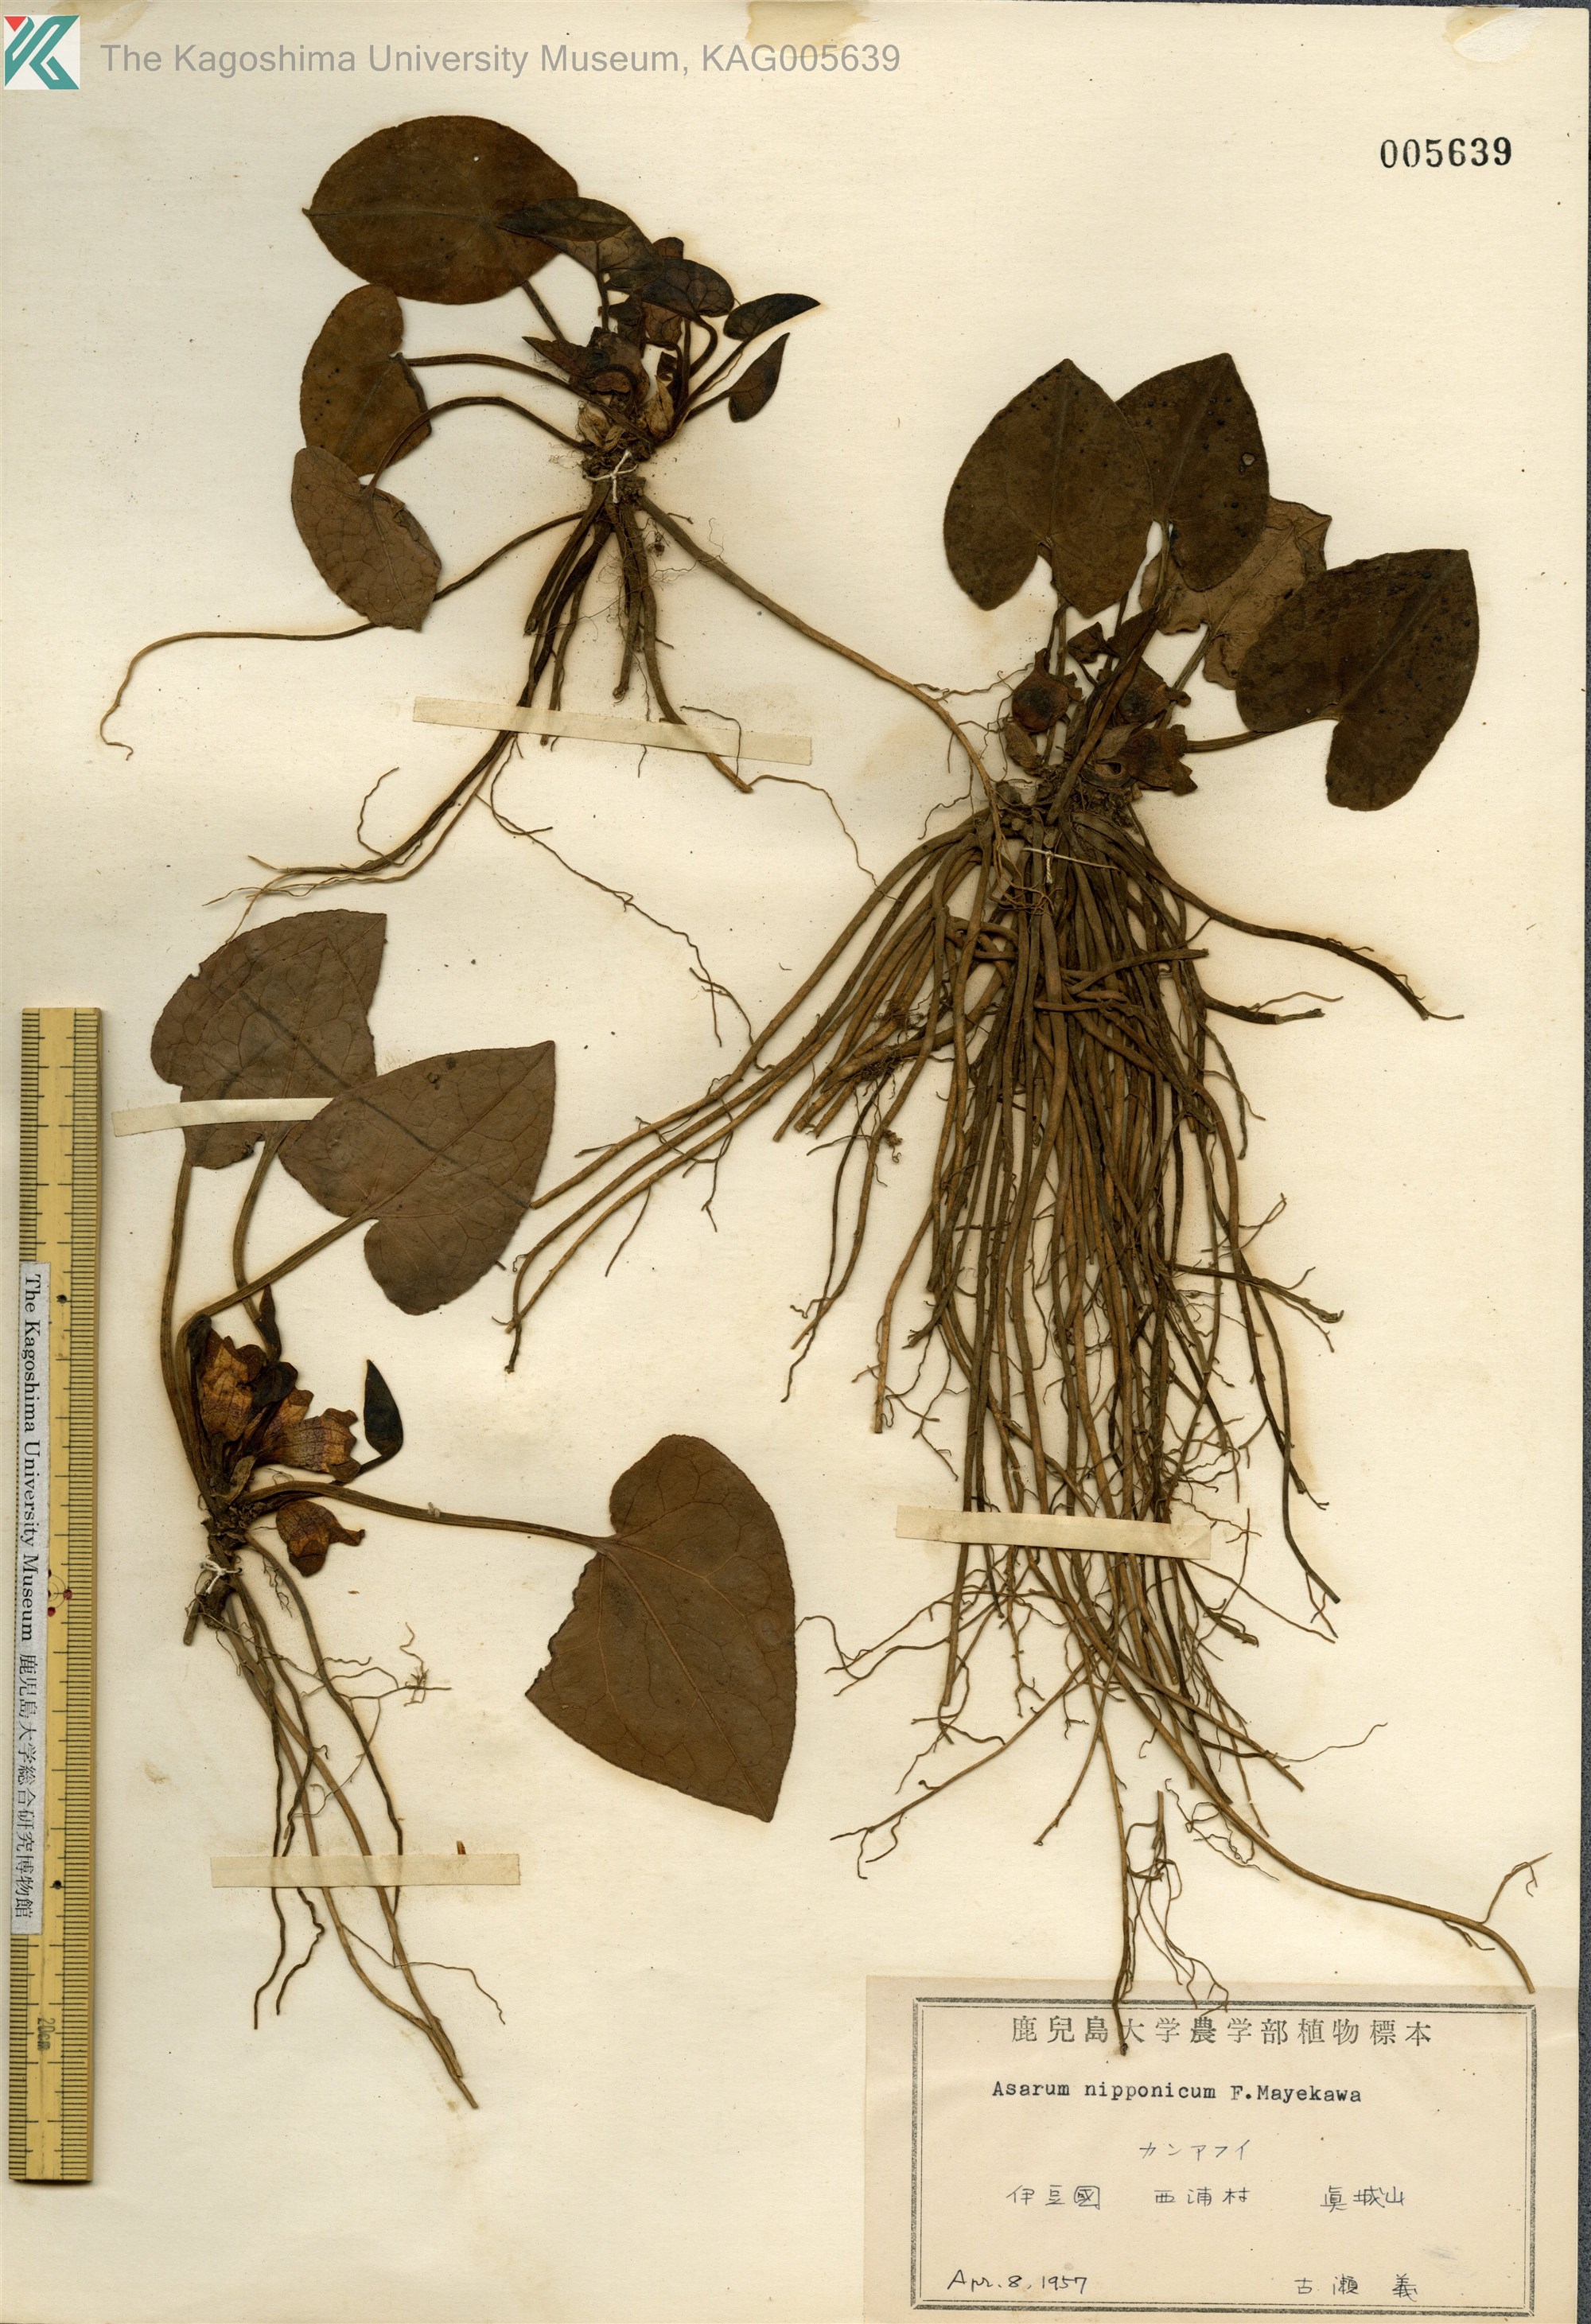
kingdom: Plantae
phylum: Tracheophyta
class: Magnoliopsida
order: Piperales
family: Aristolochiaceae
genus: Asarum
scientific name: Asarum nipponicum
